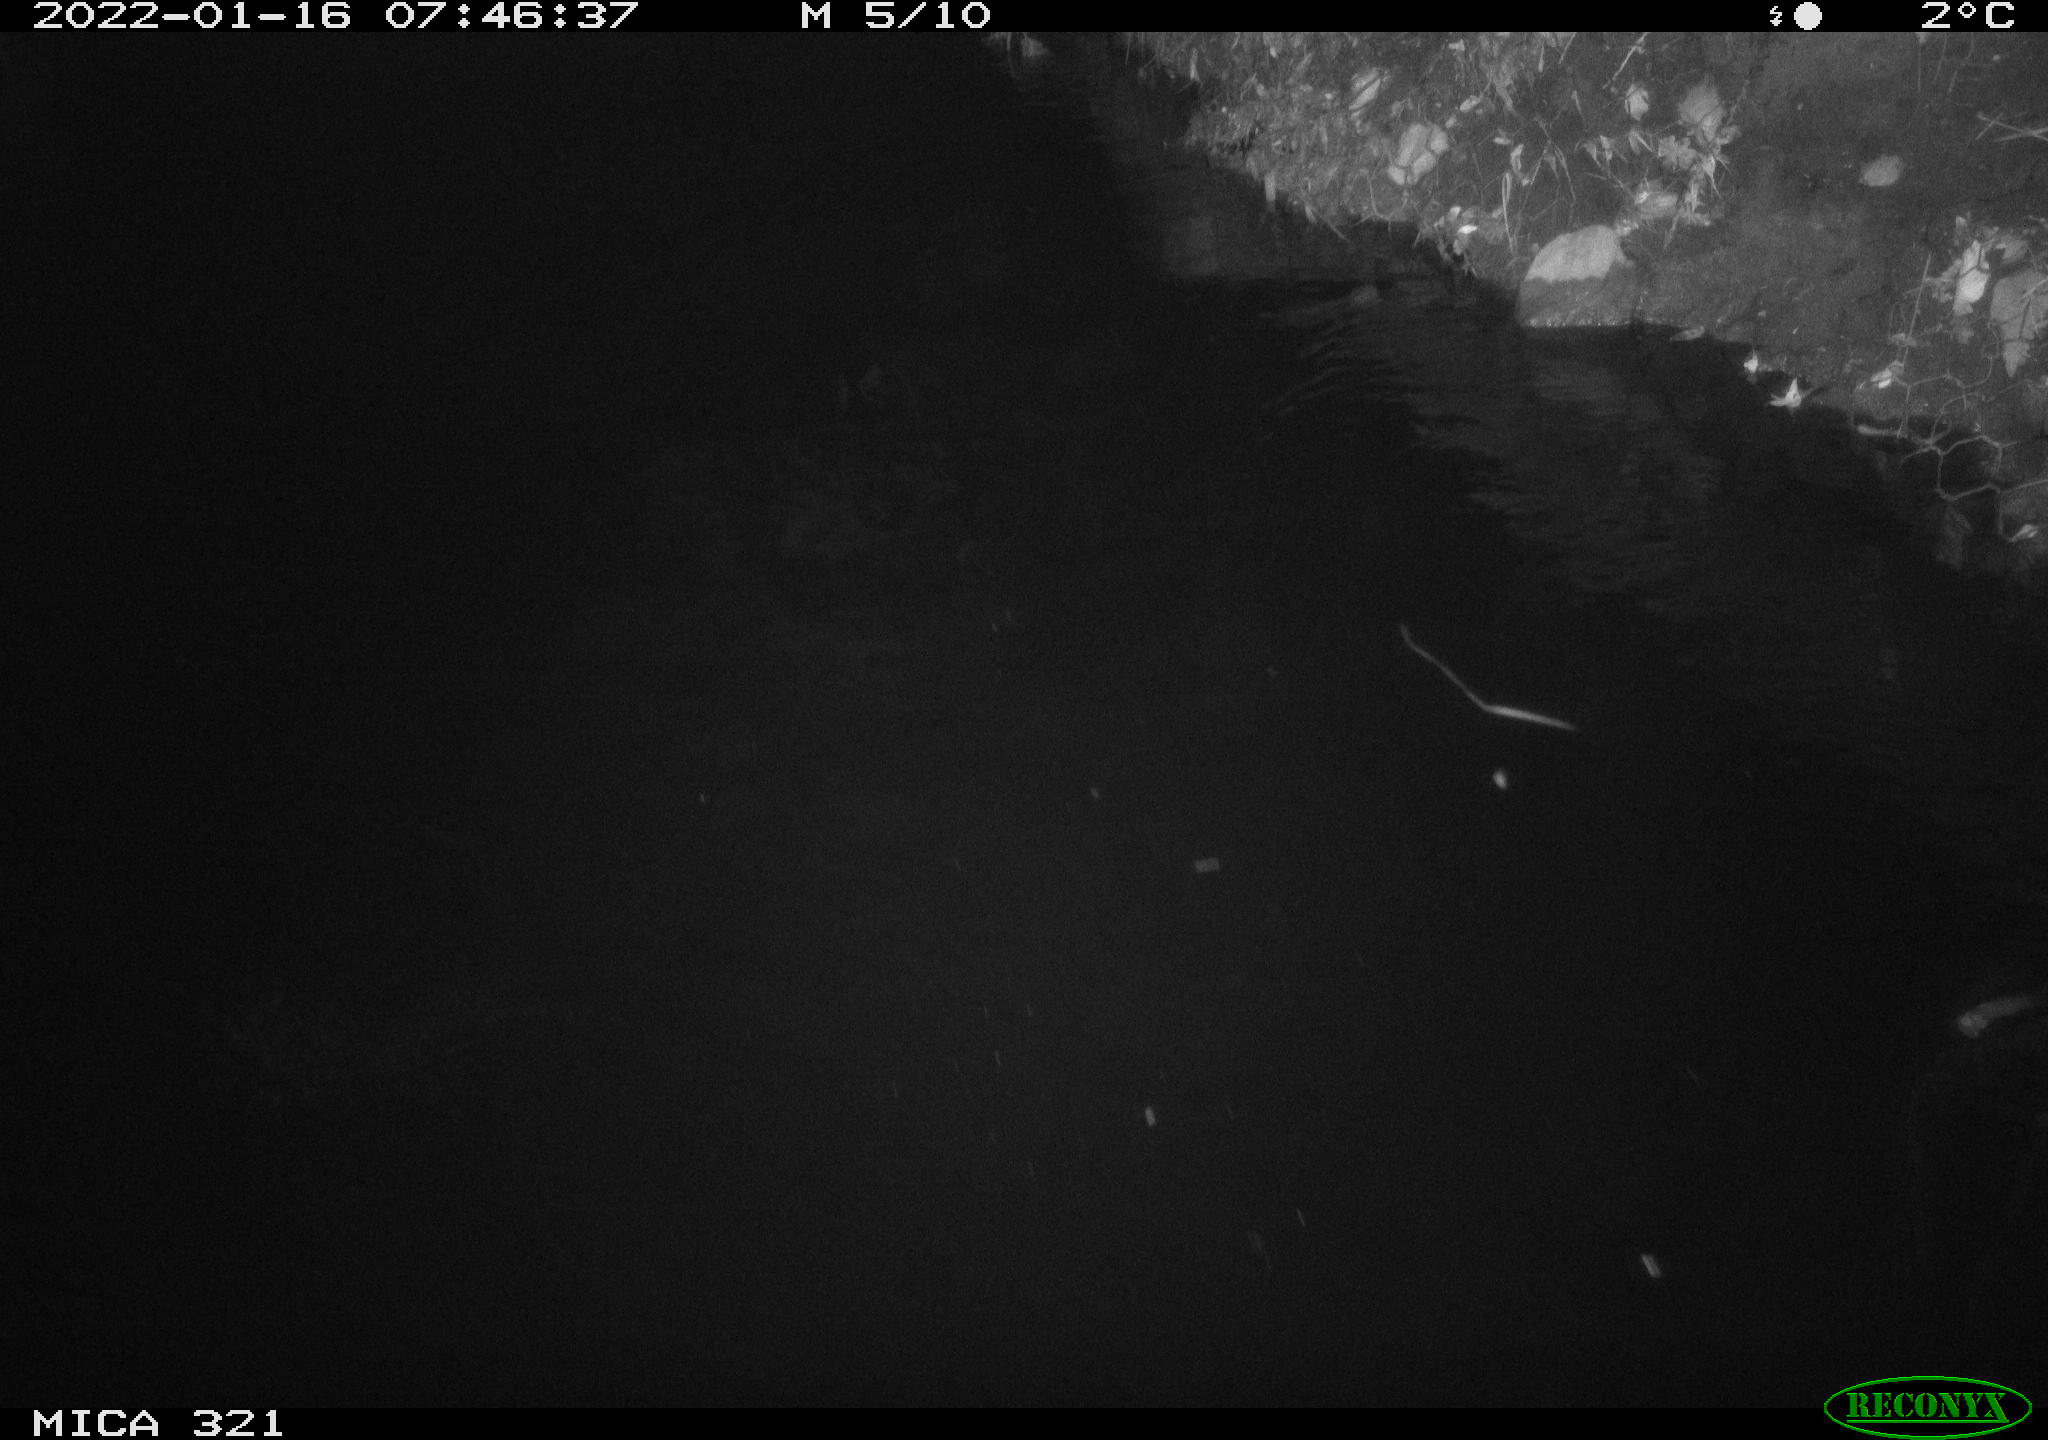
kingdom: Animalia
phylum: Chordata
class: Aves
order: Anseriformes
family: Anatidae
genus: Anas
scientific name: Anas
